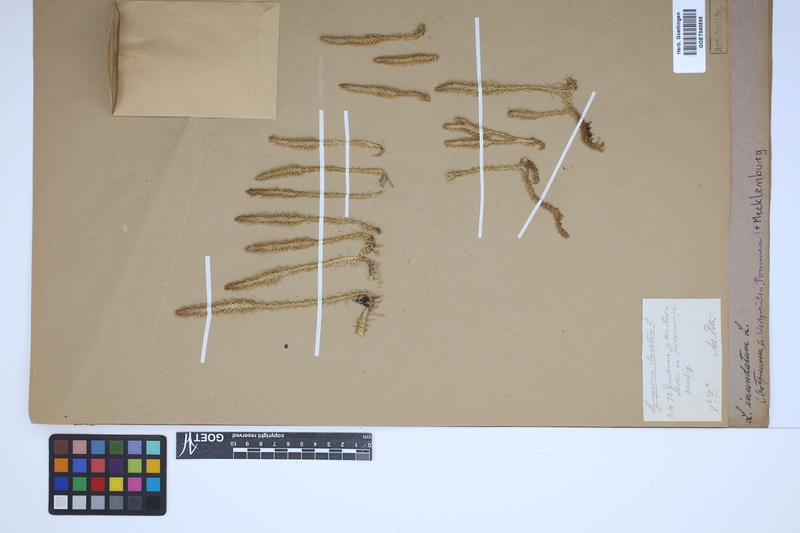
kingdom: Plantae
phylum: Tracheophyta
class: Lycopodiopsida
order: Lycopodiales
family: Lycopodiaceae
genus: Lycopodiella
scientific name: Lycopodiella inundata
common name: Marsh clubmoss
